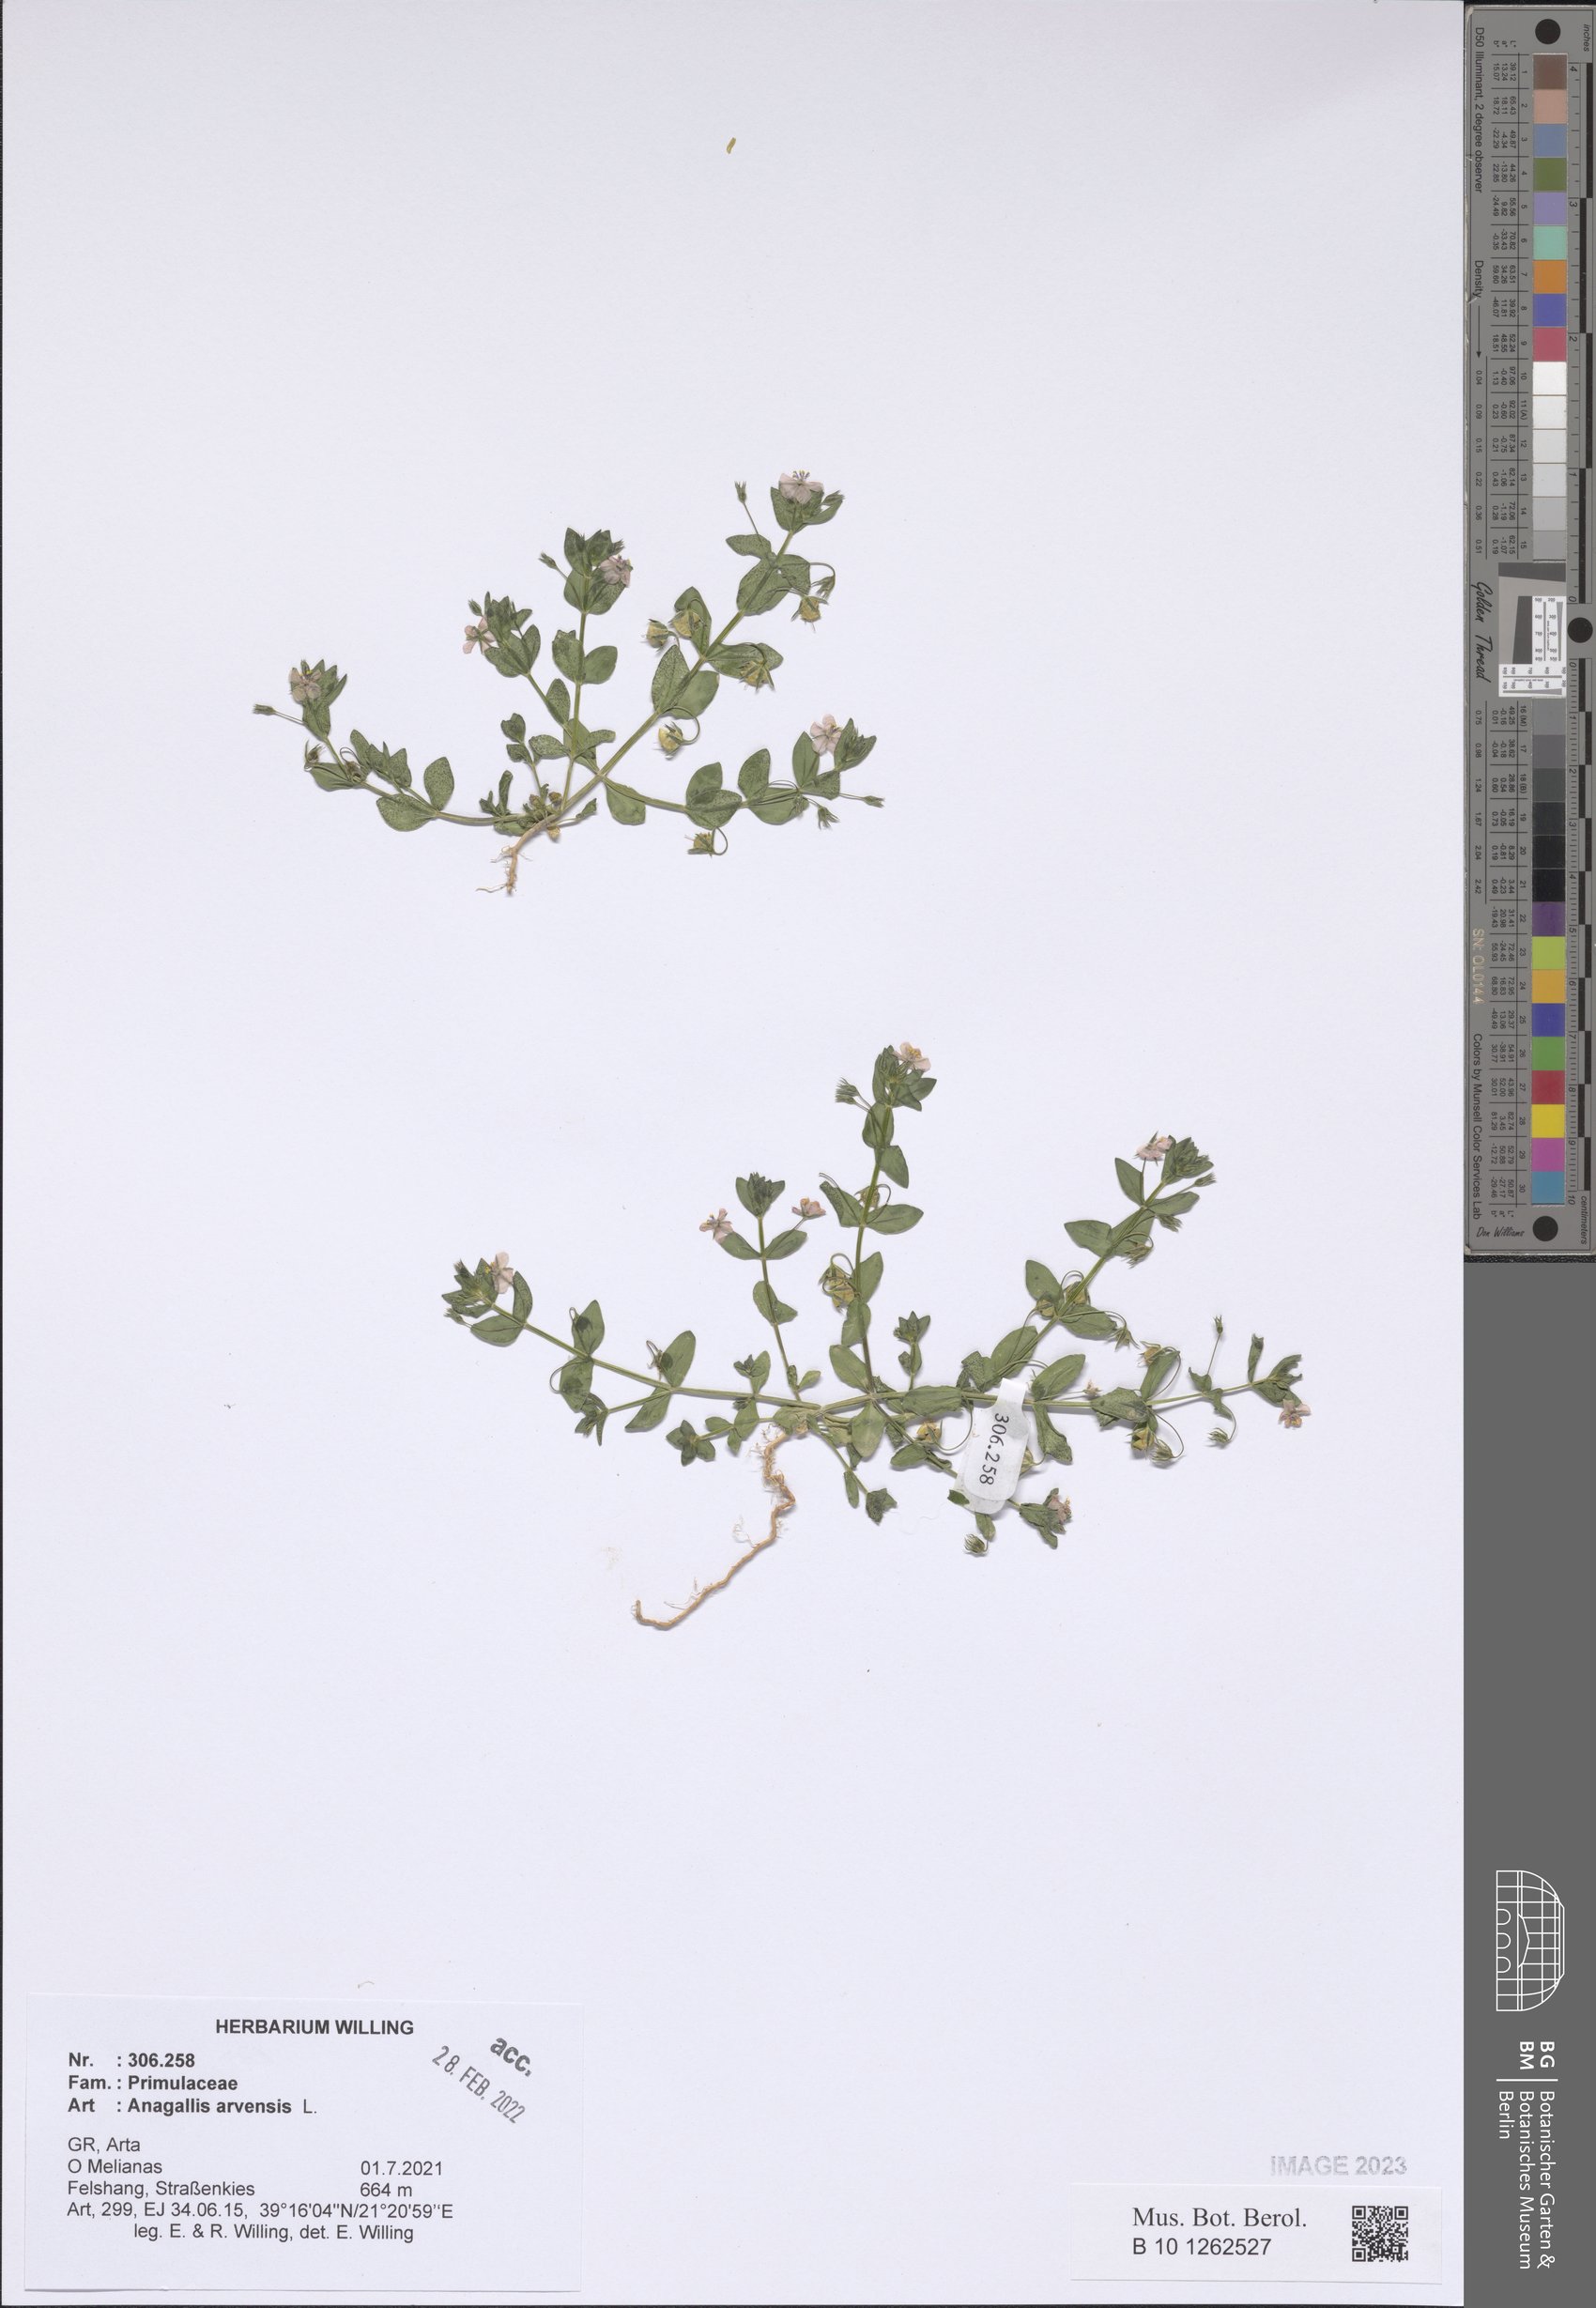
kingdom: Plantae
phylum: Tracheophyta
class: Magnoliopsida
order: Ericales
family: Primulaceae
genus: Lysimachia
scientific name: Lysimachia arvensis
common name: Scarlet pimpernel
